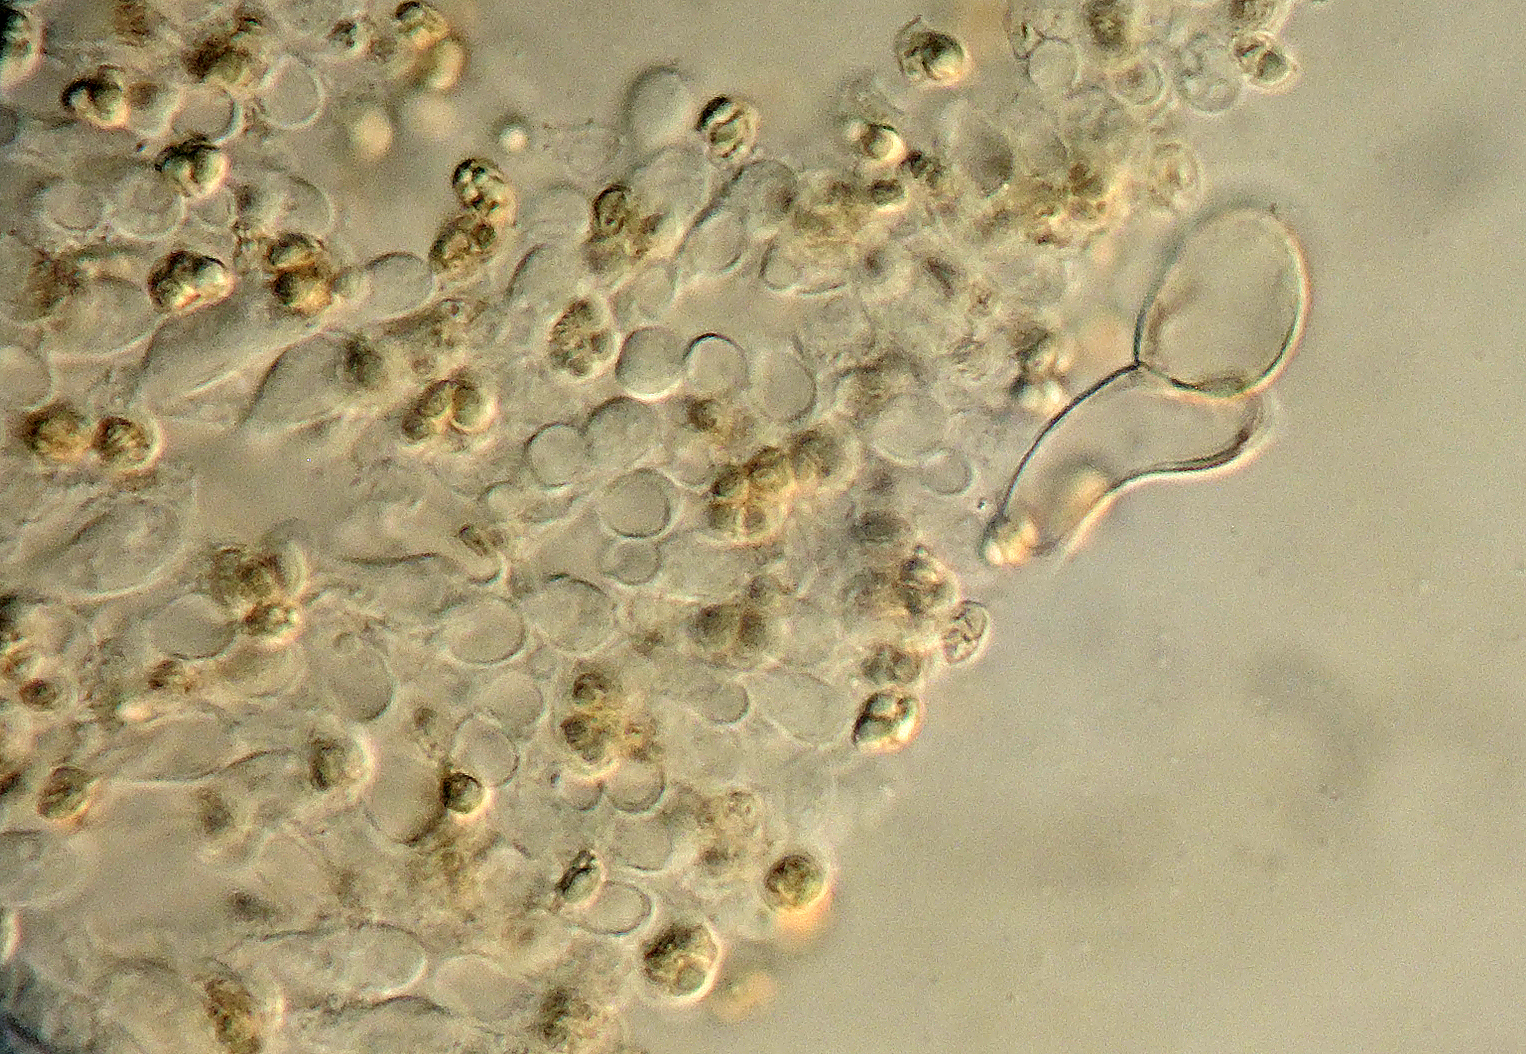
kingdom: Fungi
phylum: Basidiomycota
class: Agaricomycetes
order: Agaricales
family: Tubariaceae
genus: Flammulaster
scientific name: Flammulaster
